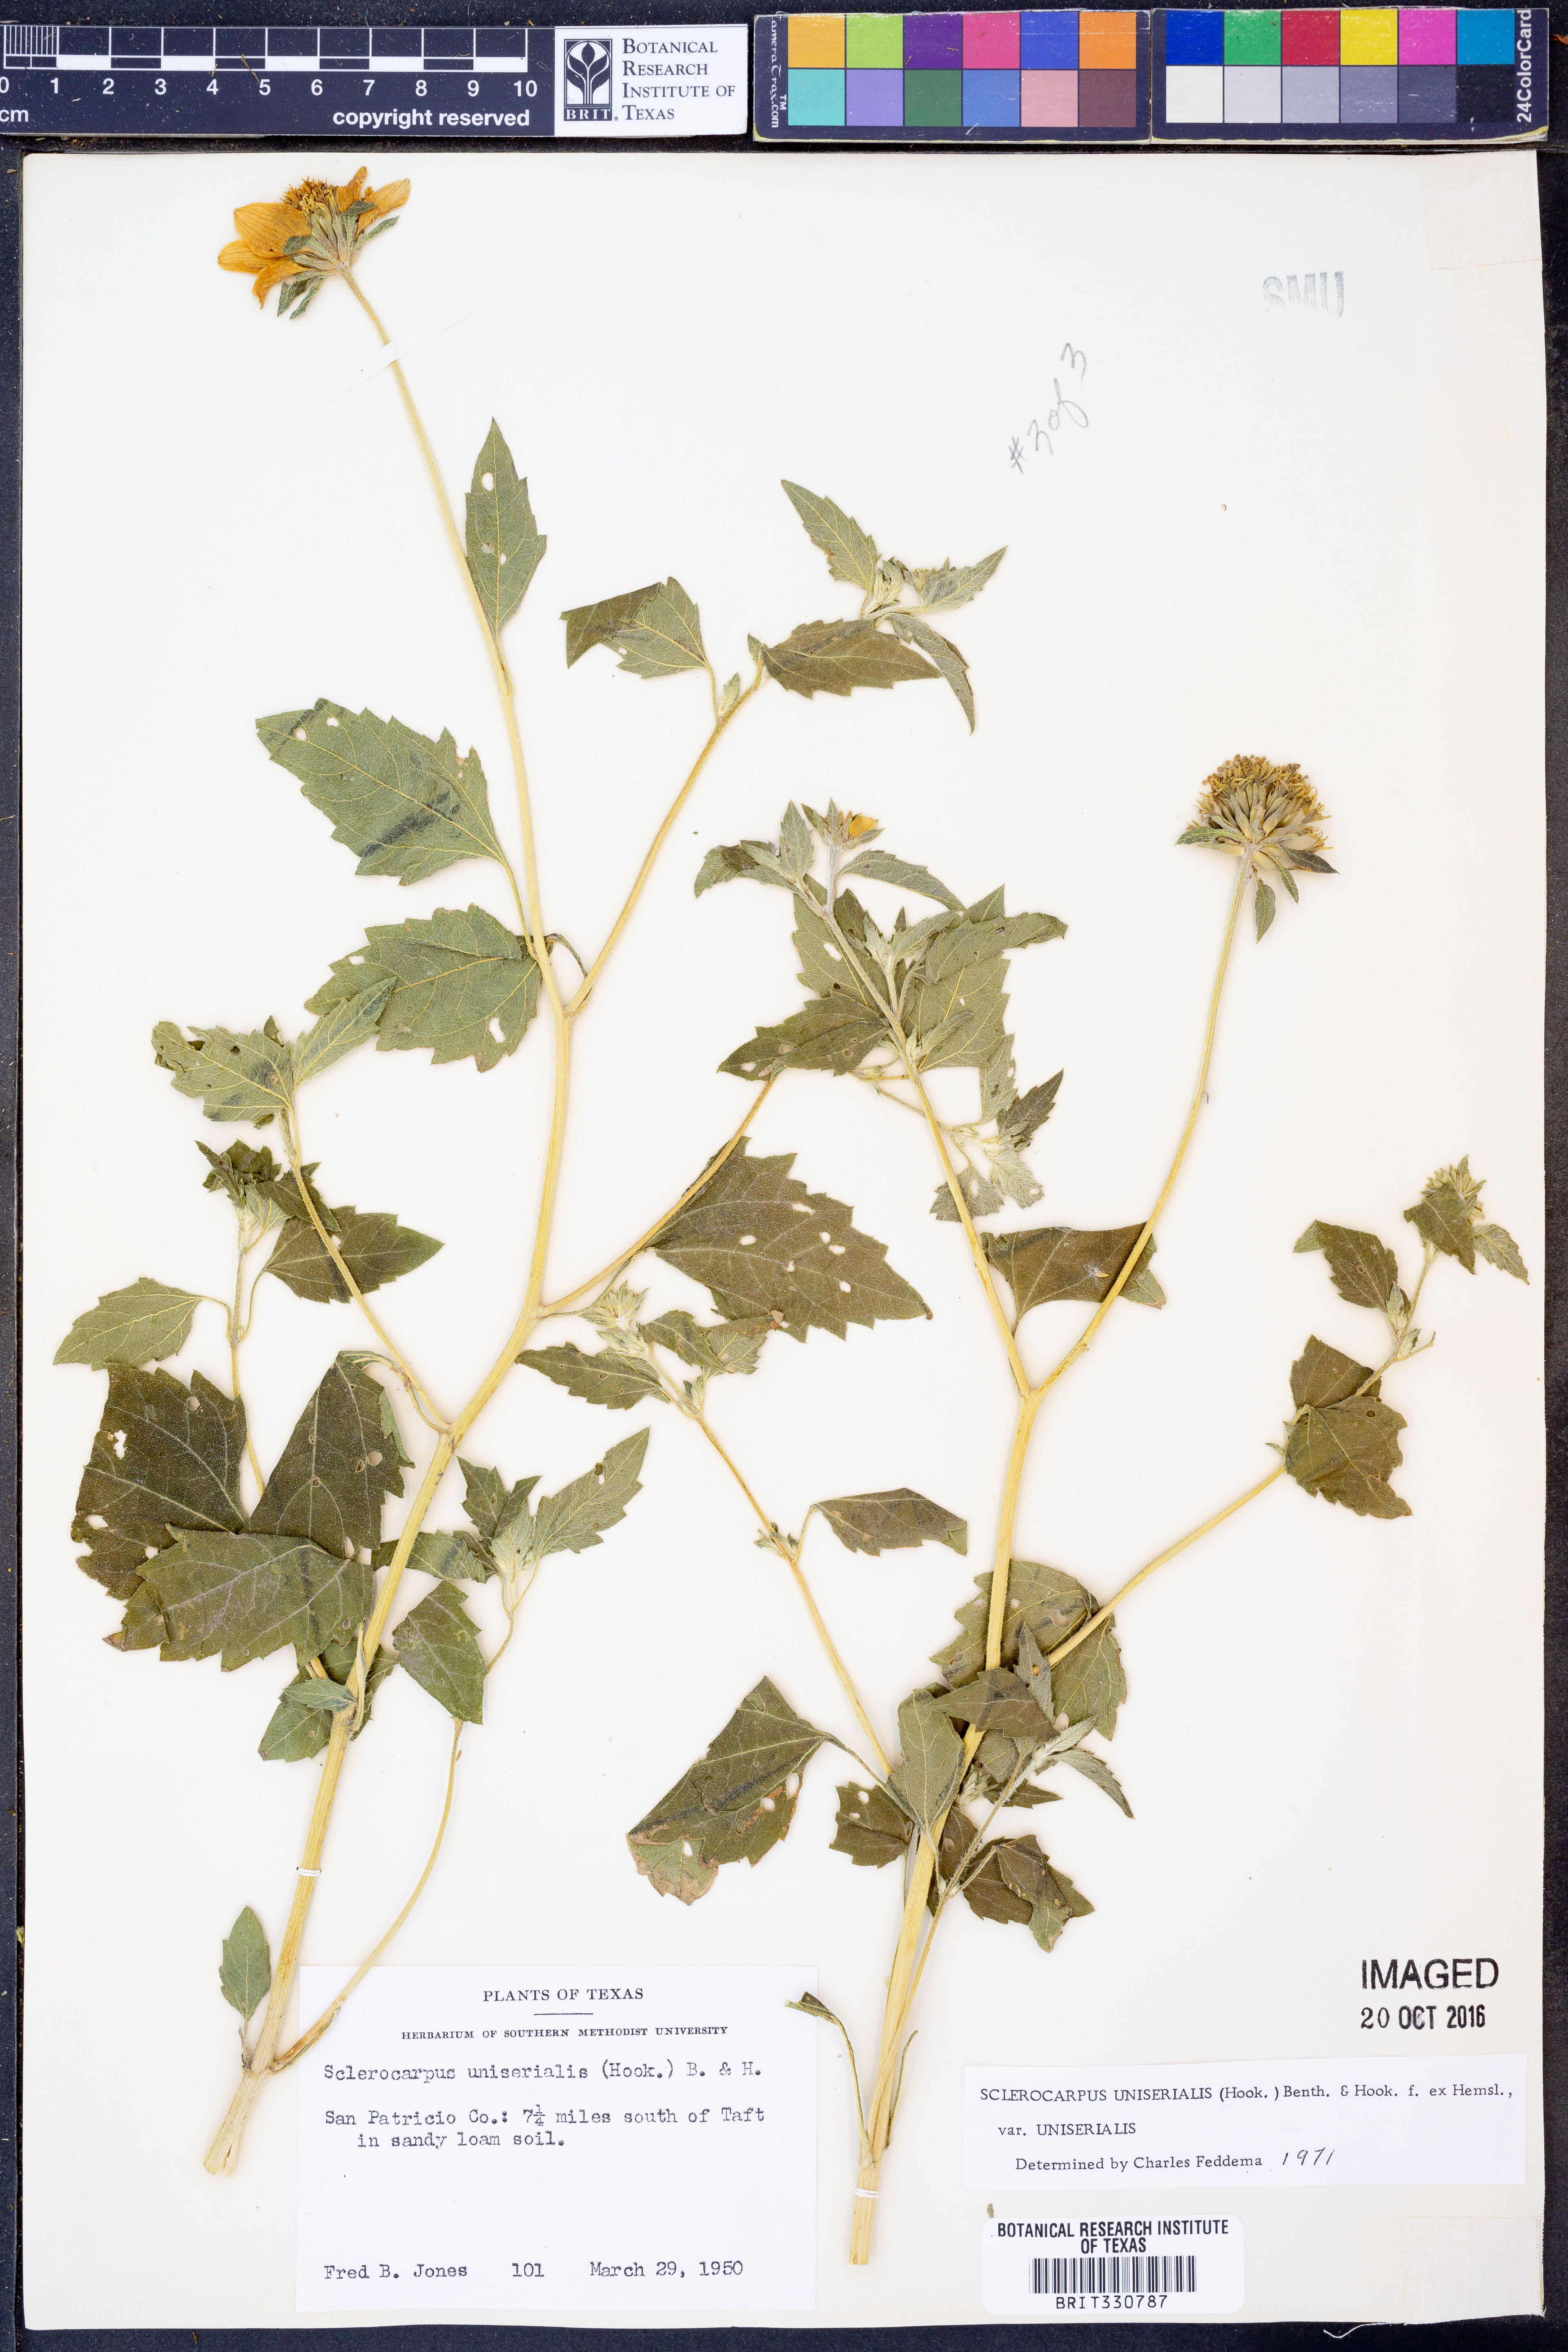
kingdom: Plantae
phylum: Tracheophyta
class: Magnoliopsida
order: Asterales
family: Asteraceae
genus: Sclerocarpus
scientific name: Sclerocarpus uniserialis
